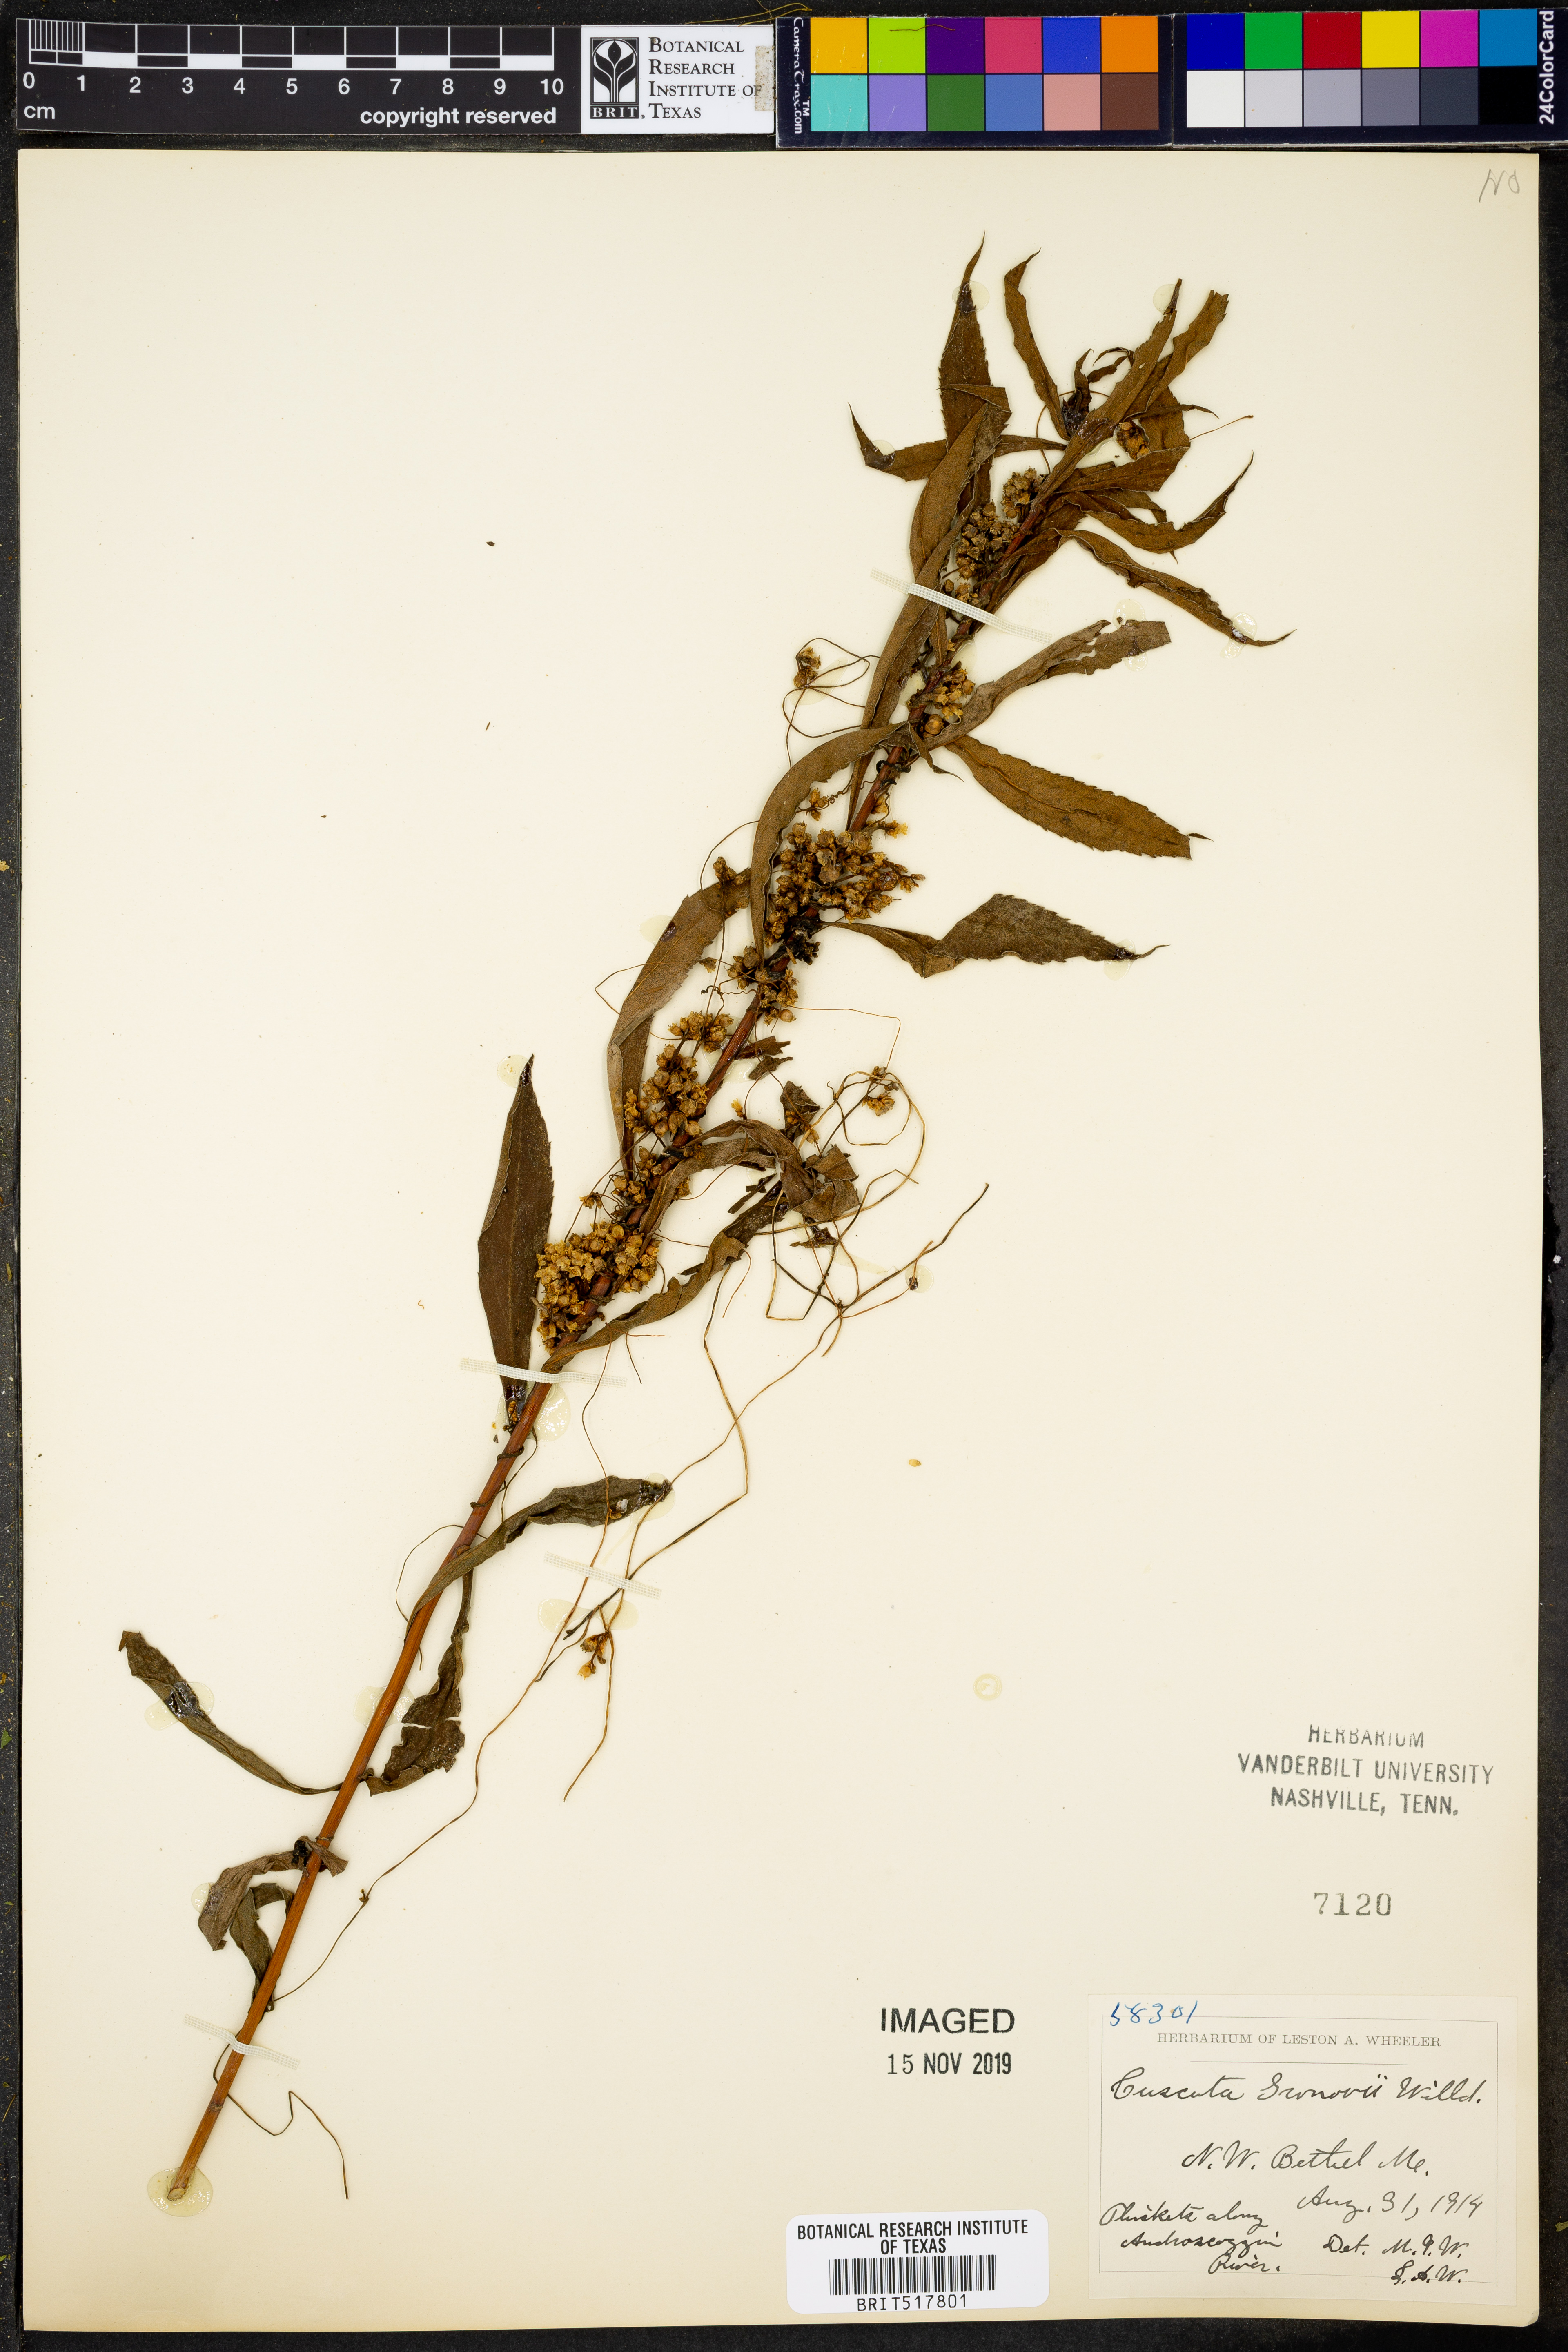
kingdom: Plantae
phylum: Tracheophyta
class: Magnoliopsida
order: Solanales
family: Convolvulaceae
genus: Cuscuta
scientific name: Cuscuta gronovii
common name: Common dodder
